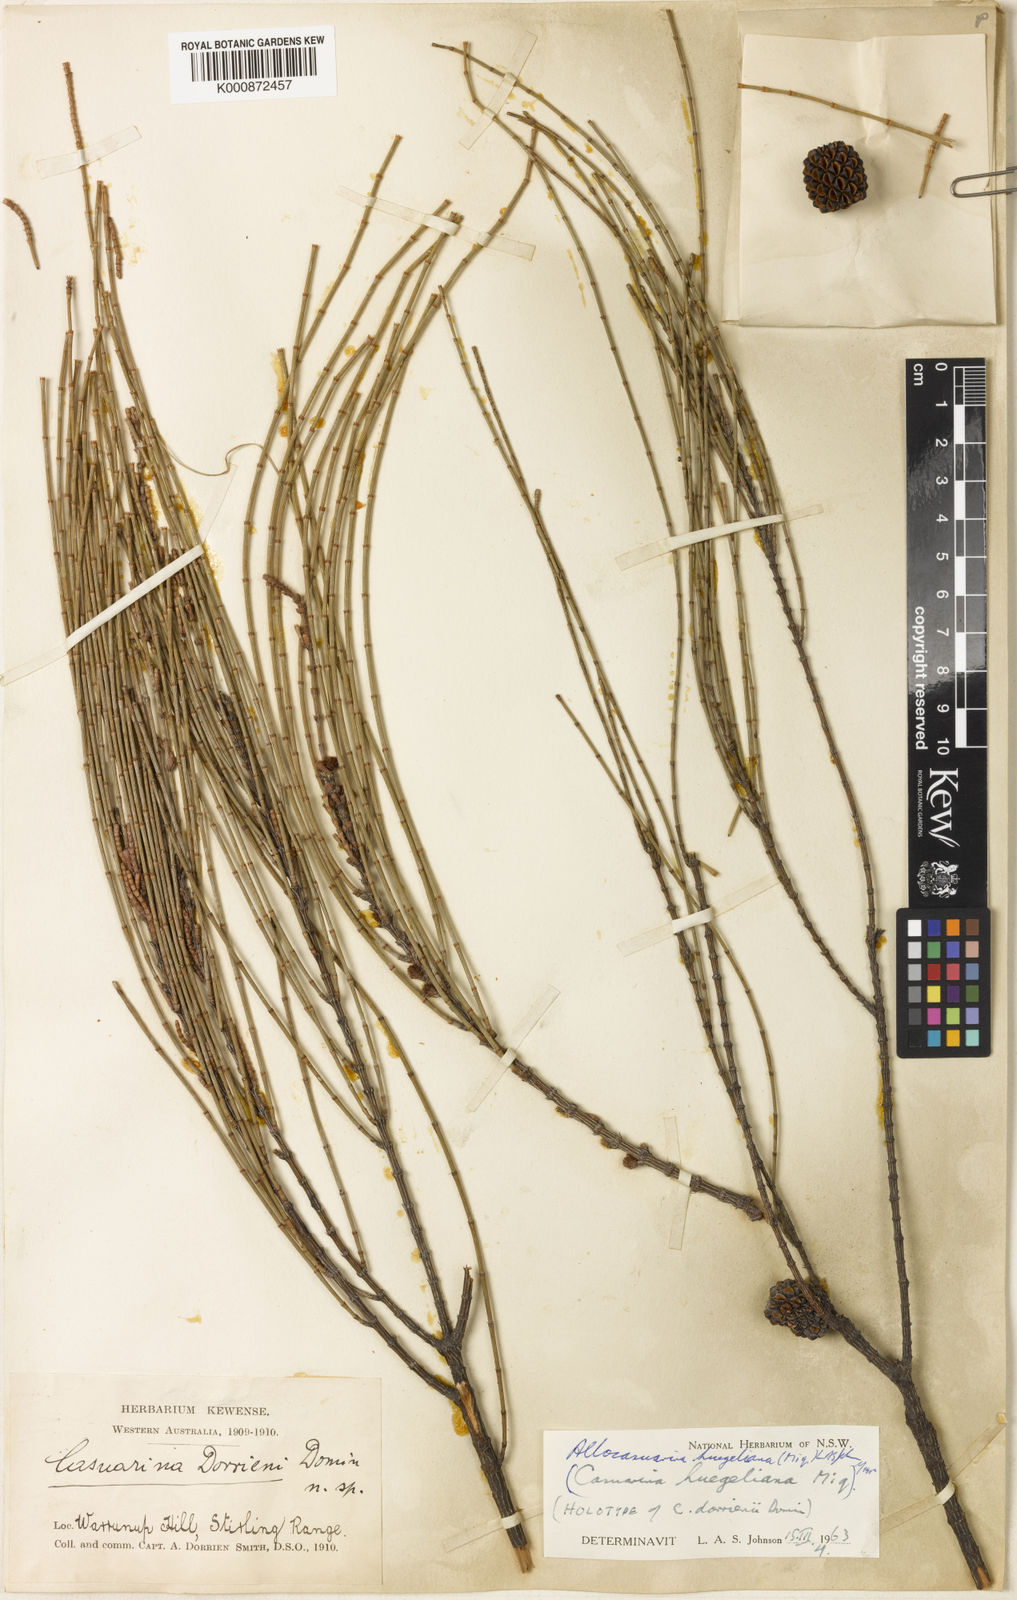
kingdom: Plantae
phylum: Tracheophyta
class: Magnoliopsida
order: Fagales
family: Casuarinaceae
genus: Allocasuarina
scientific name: Allocasuarina huegeliana
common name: Rock she-oak
